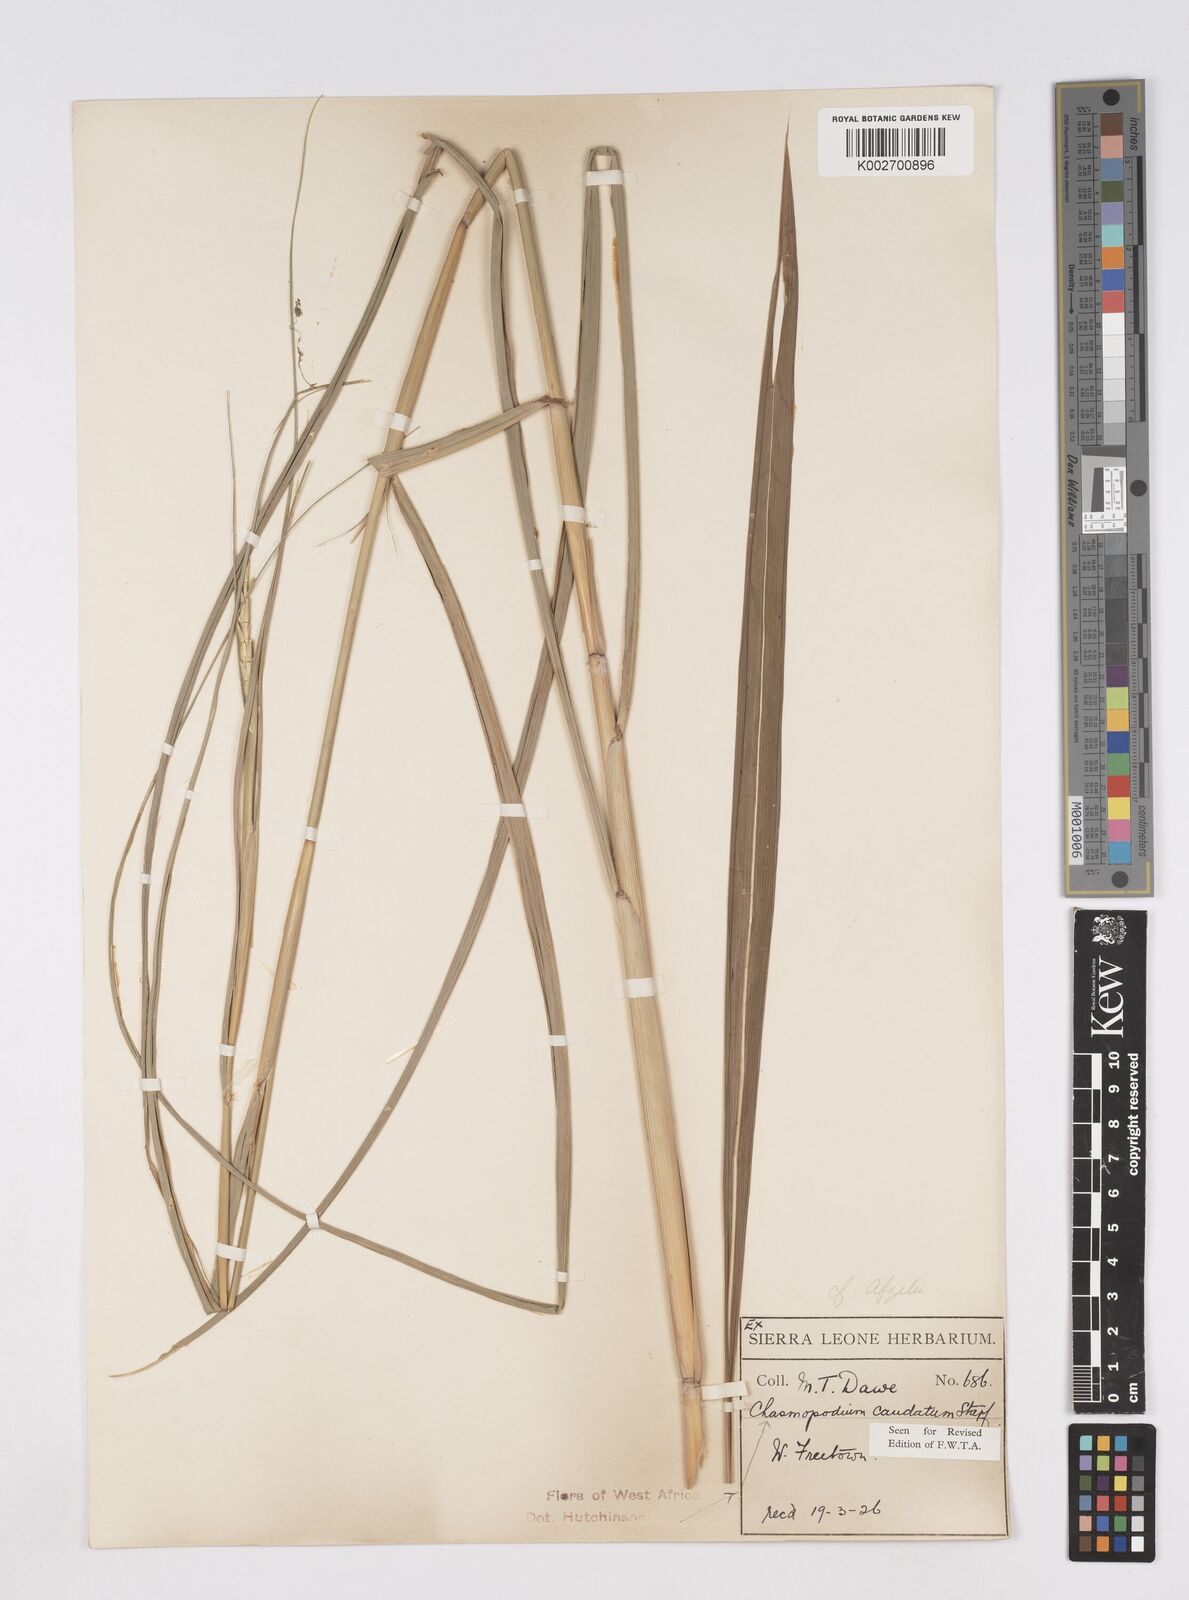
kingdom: Plantae
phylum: Tracheophyta
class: Liliopsida
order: Poales
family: Poaceae
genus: Chasmopodium
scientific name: Chasmopodium caudatum
